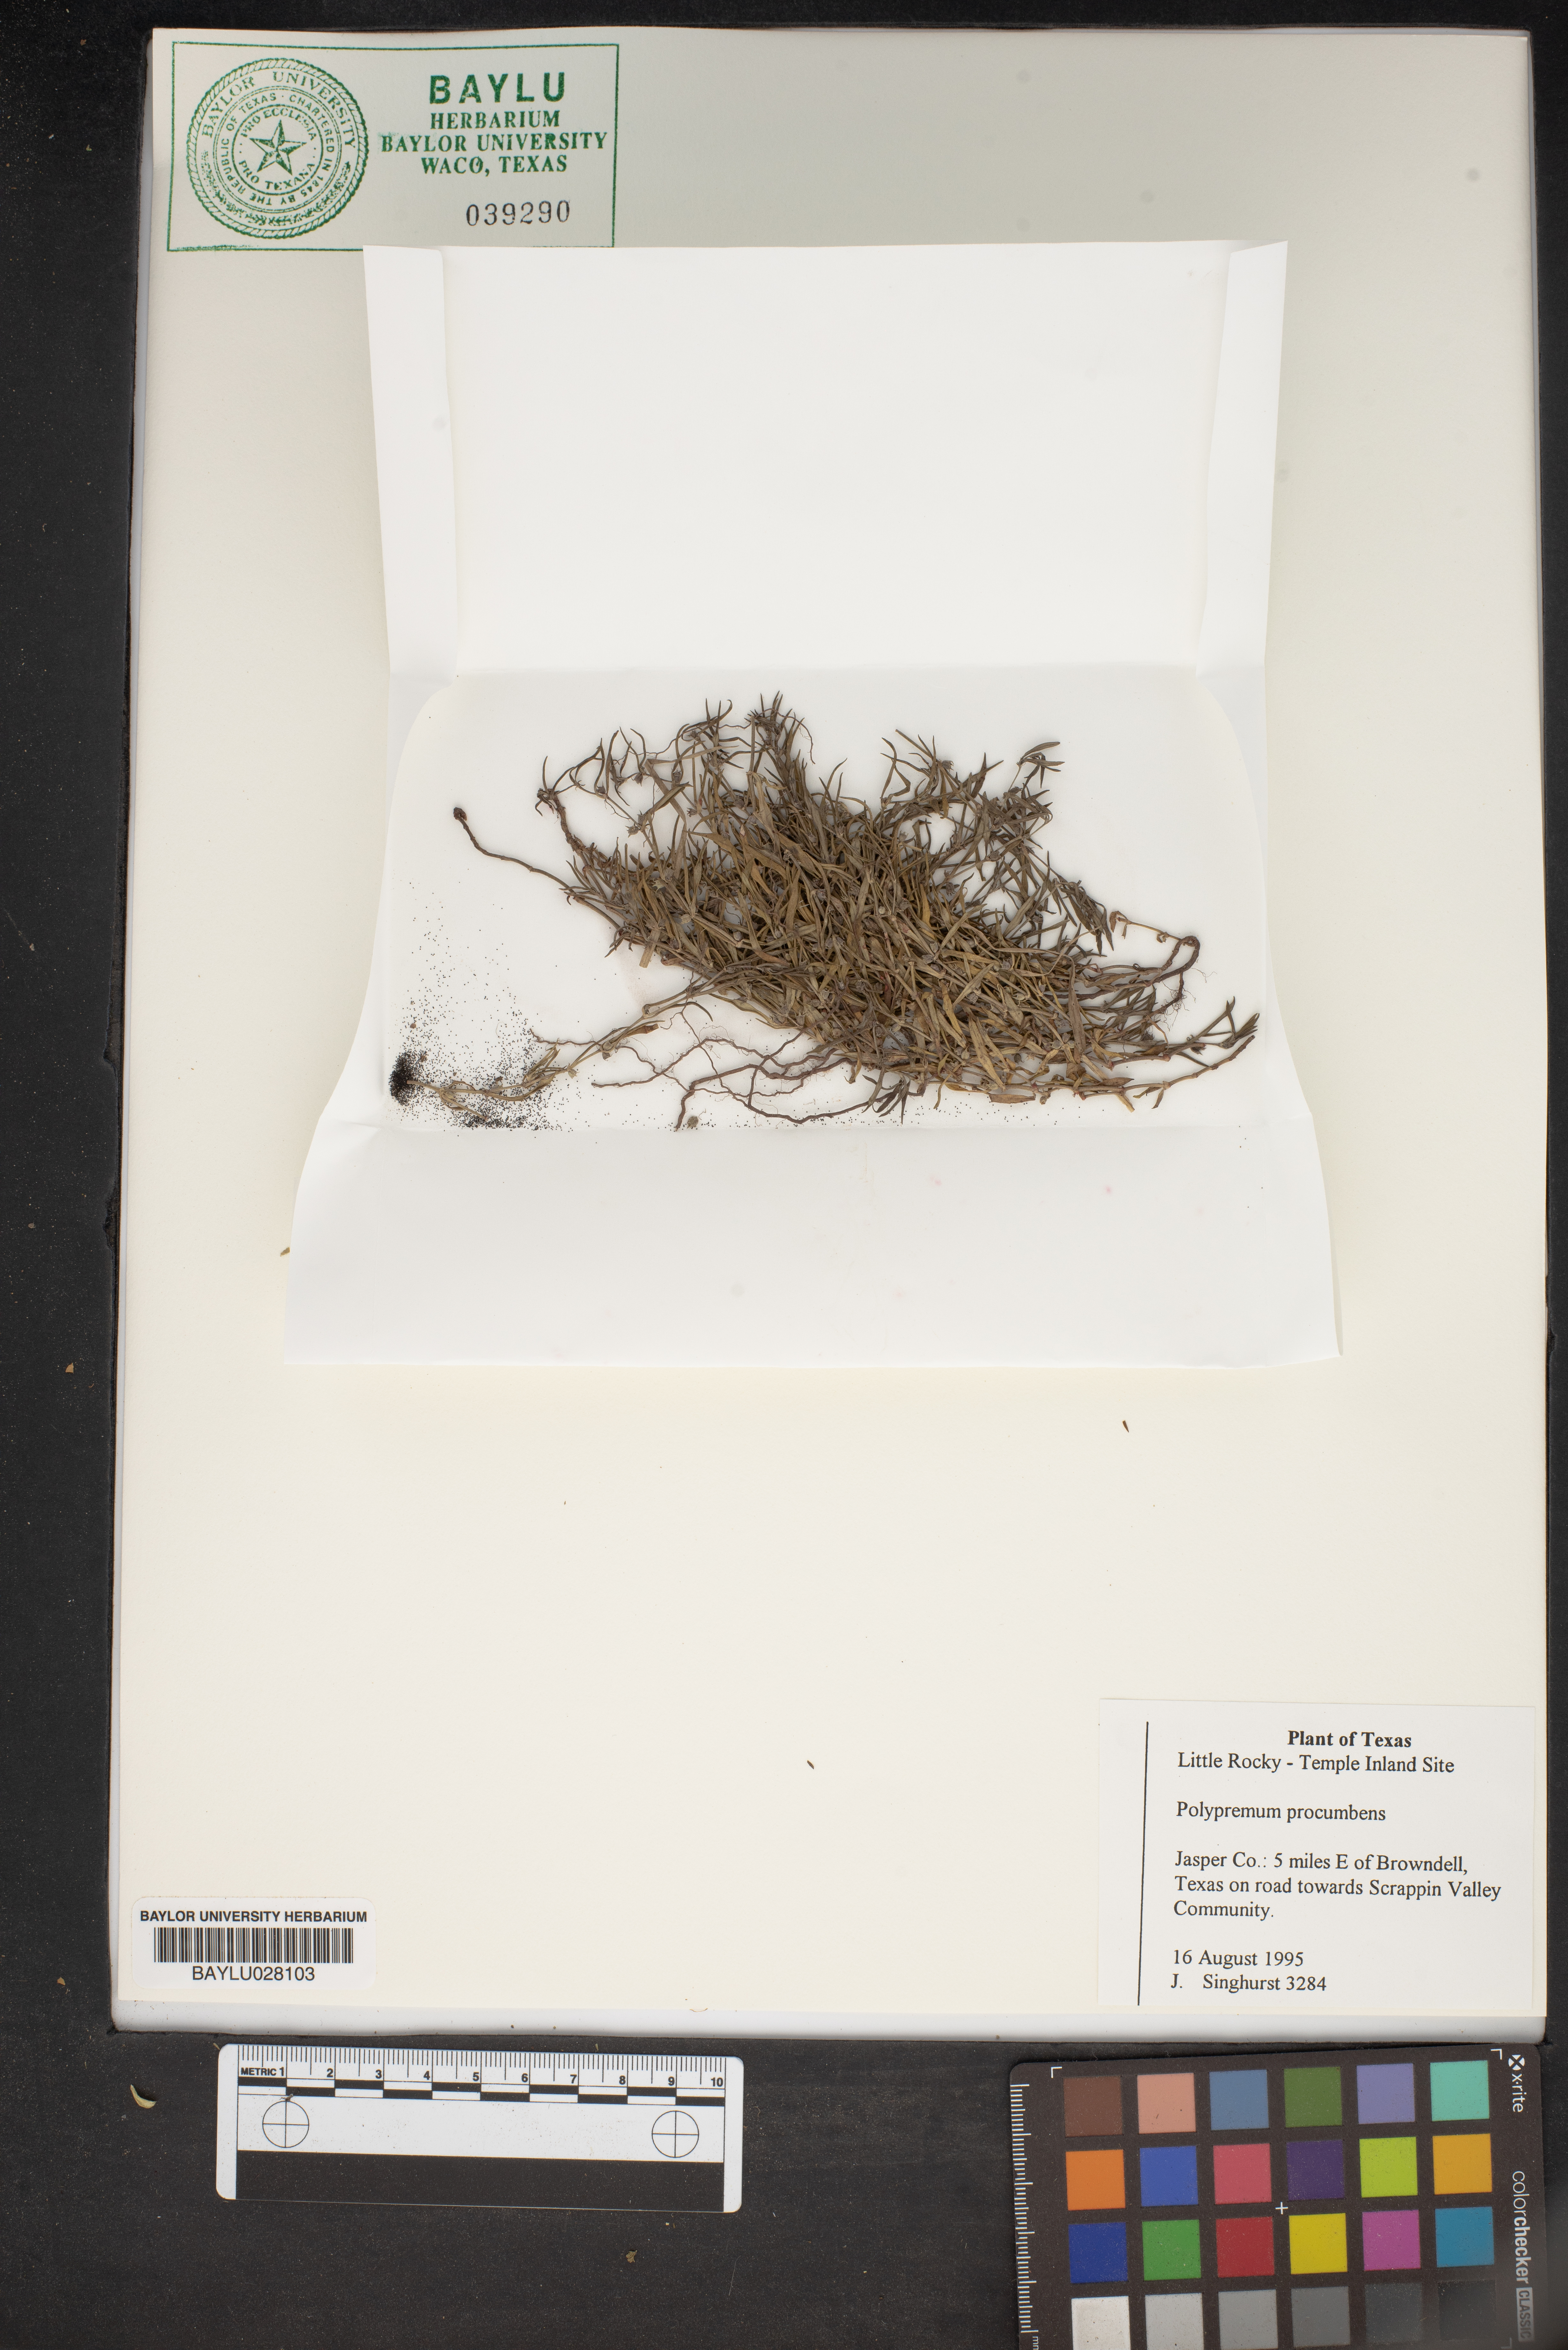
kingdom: Plantae
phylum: Tracheophyta
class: Magnoliopsida
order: Lamiales
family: Tetrachondraceae
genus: Polypremum
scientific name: Polypremum procumbens
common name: Juniper-leaf
